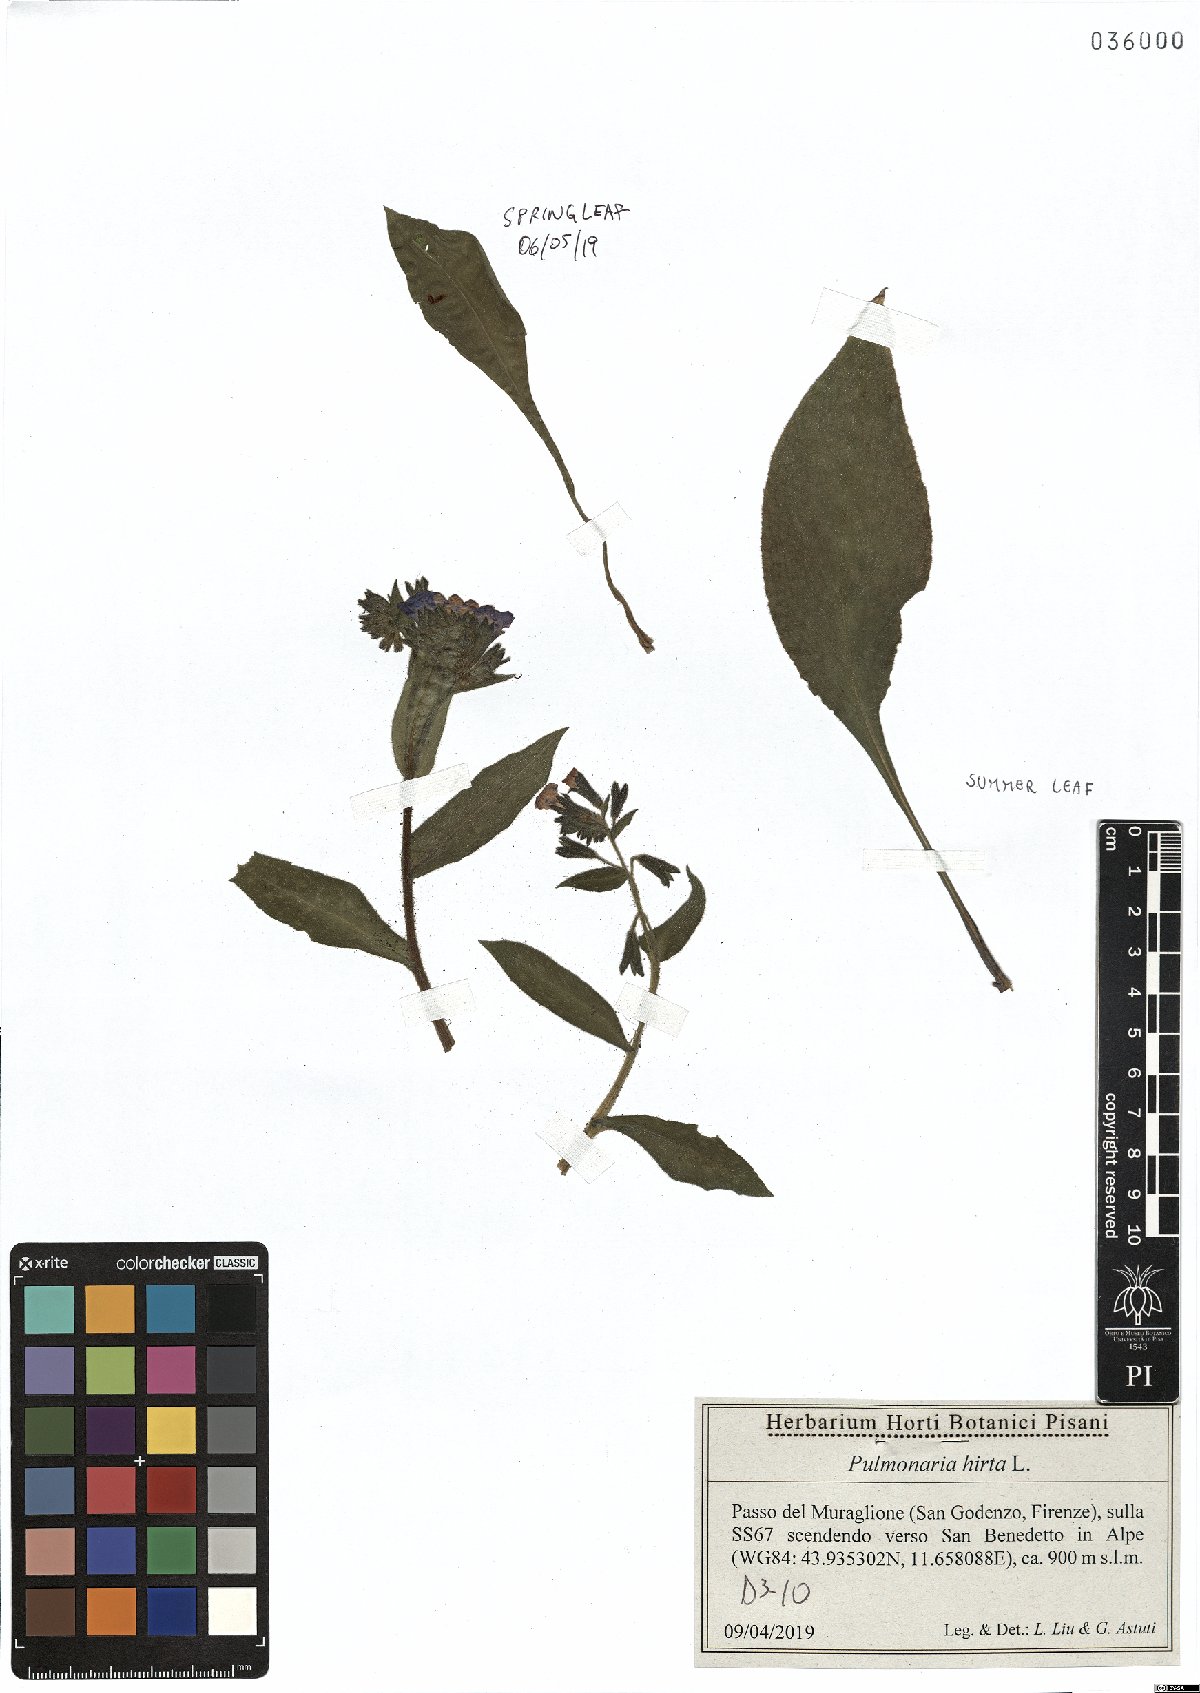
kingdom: Plantae
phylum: Tracheophyta
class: Magnoliopsida
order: Boraginales
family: Boraginaceae
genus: Pulmonaria
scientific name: Pulmonaria hirta
